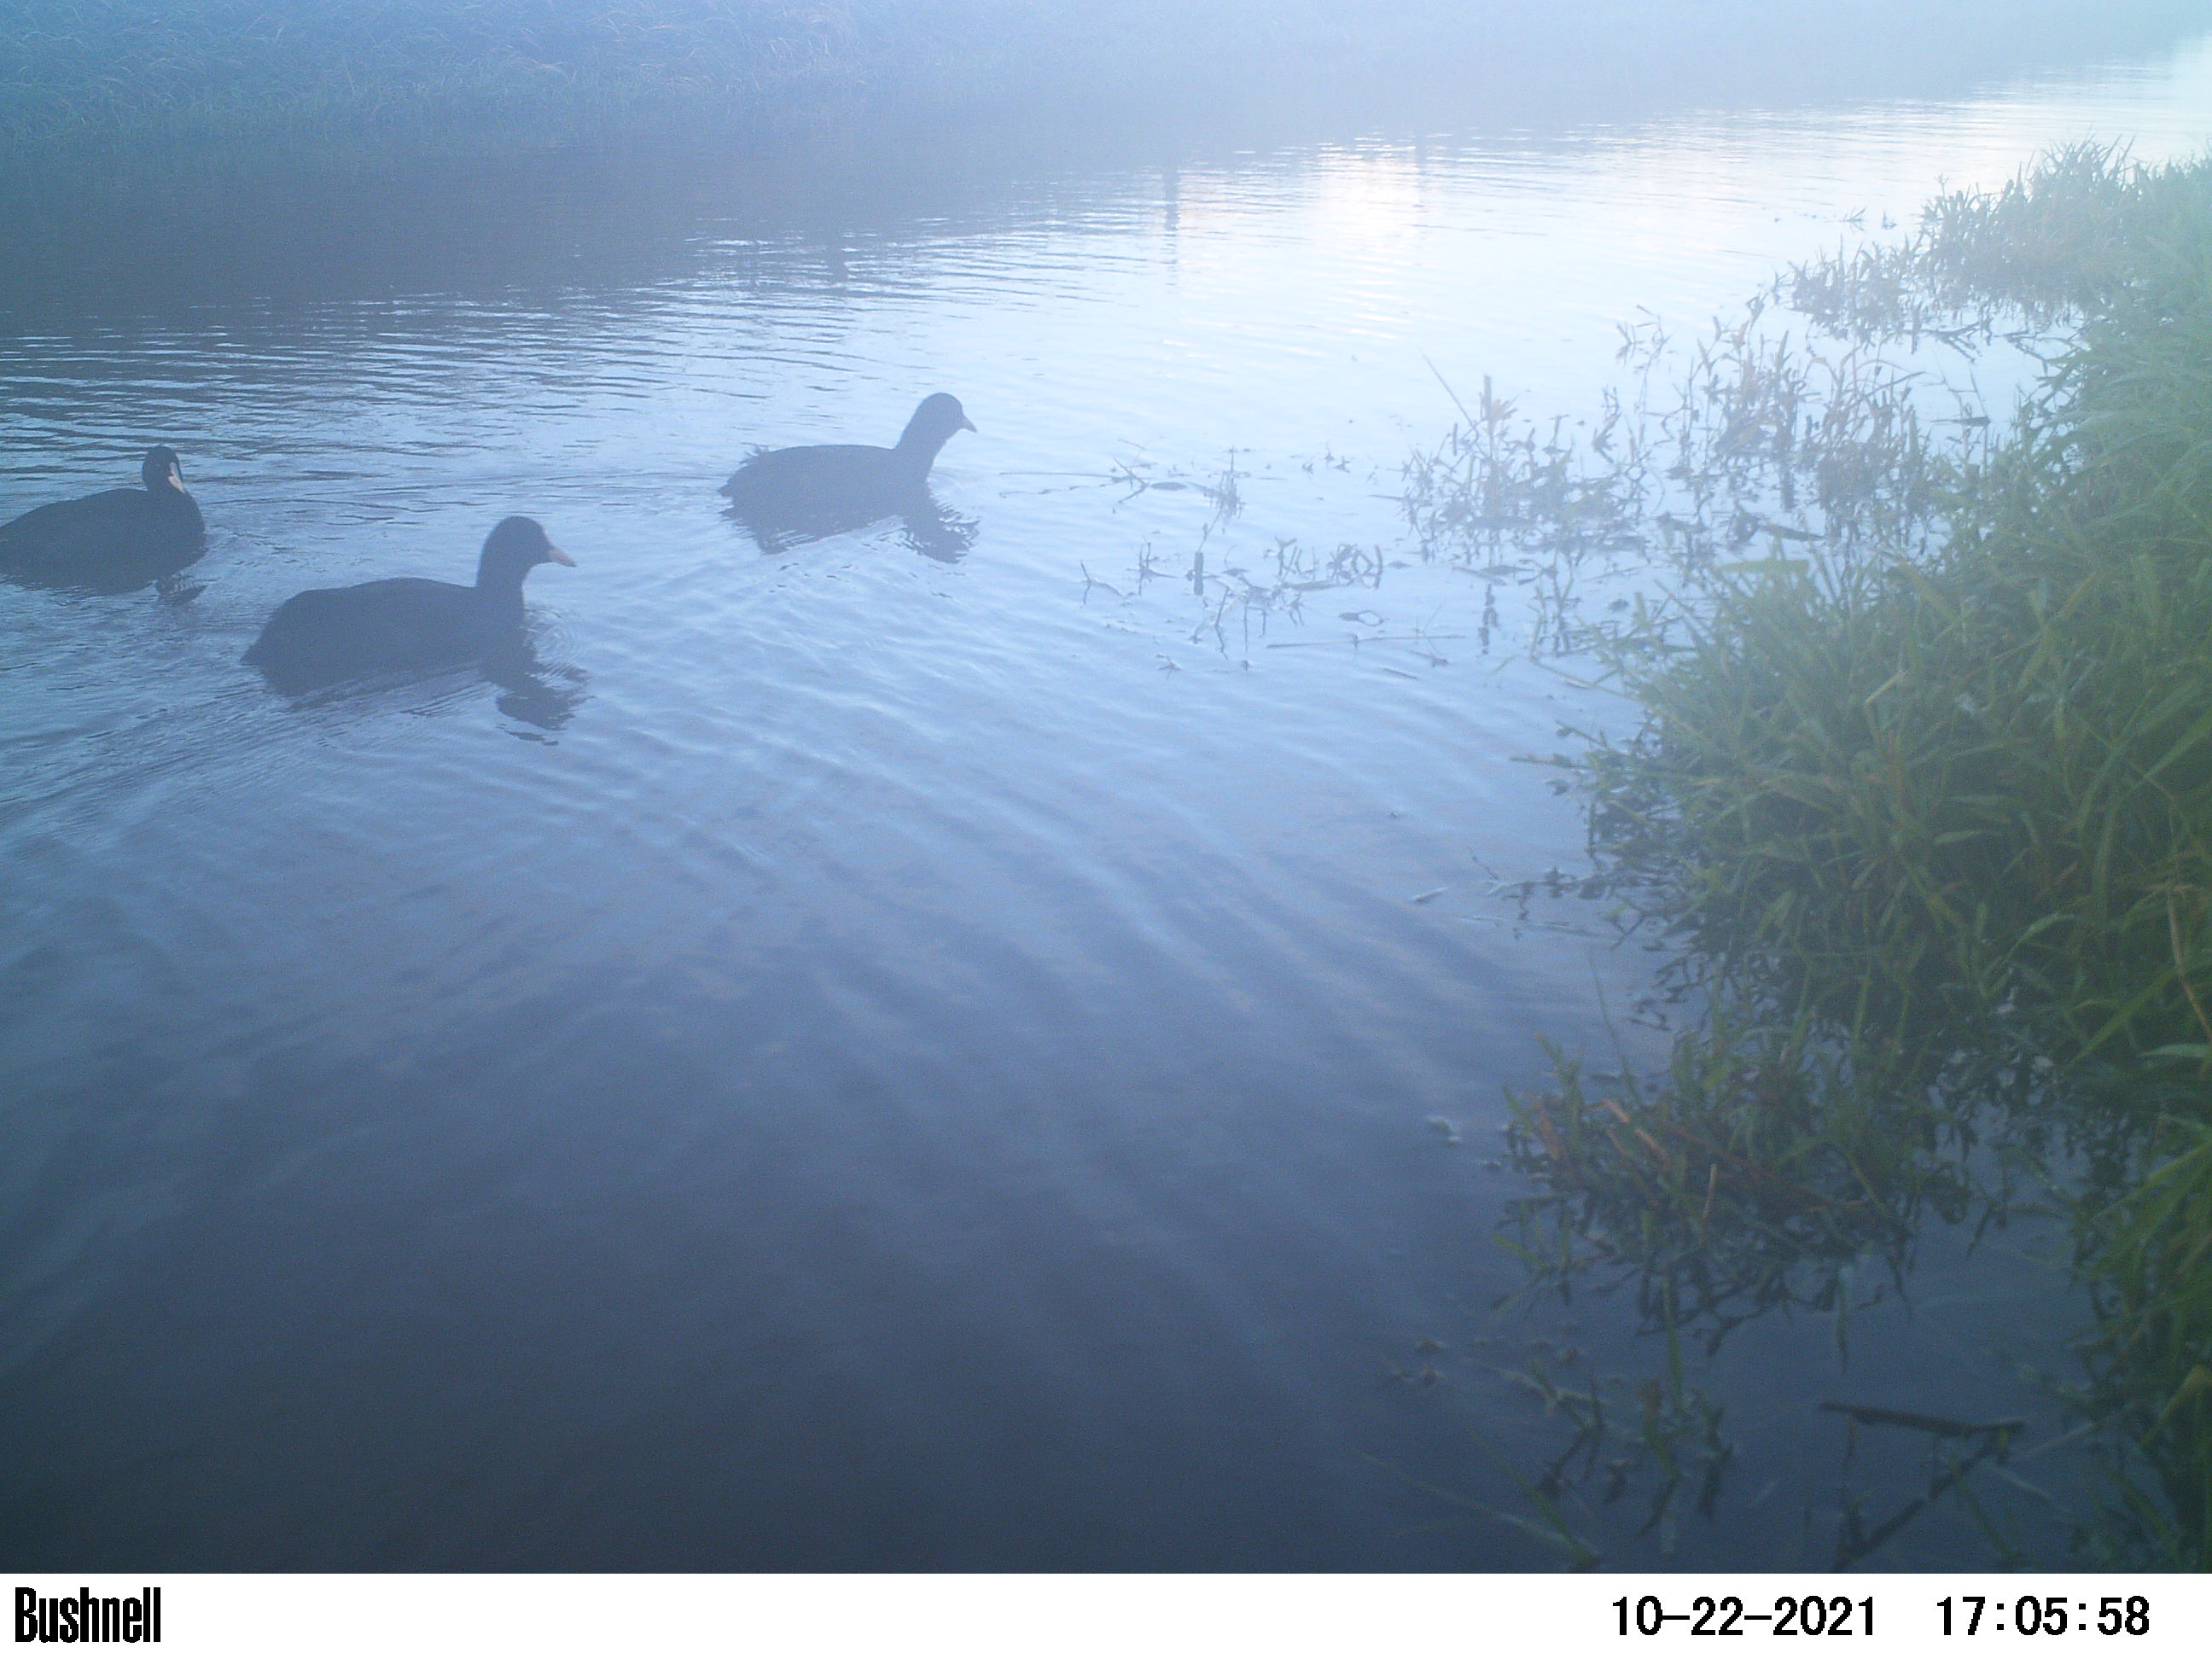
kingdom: Animalia
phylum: Chordata
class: Aves
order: Gruiformes
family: Rallidae
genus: Fulica
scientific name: Fulica atra
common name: Eurasian coot
